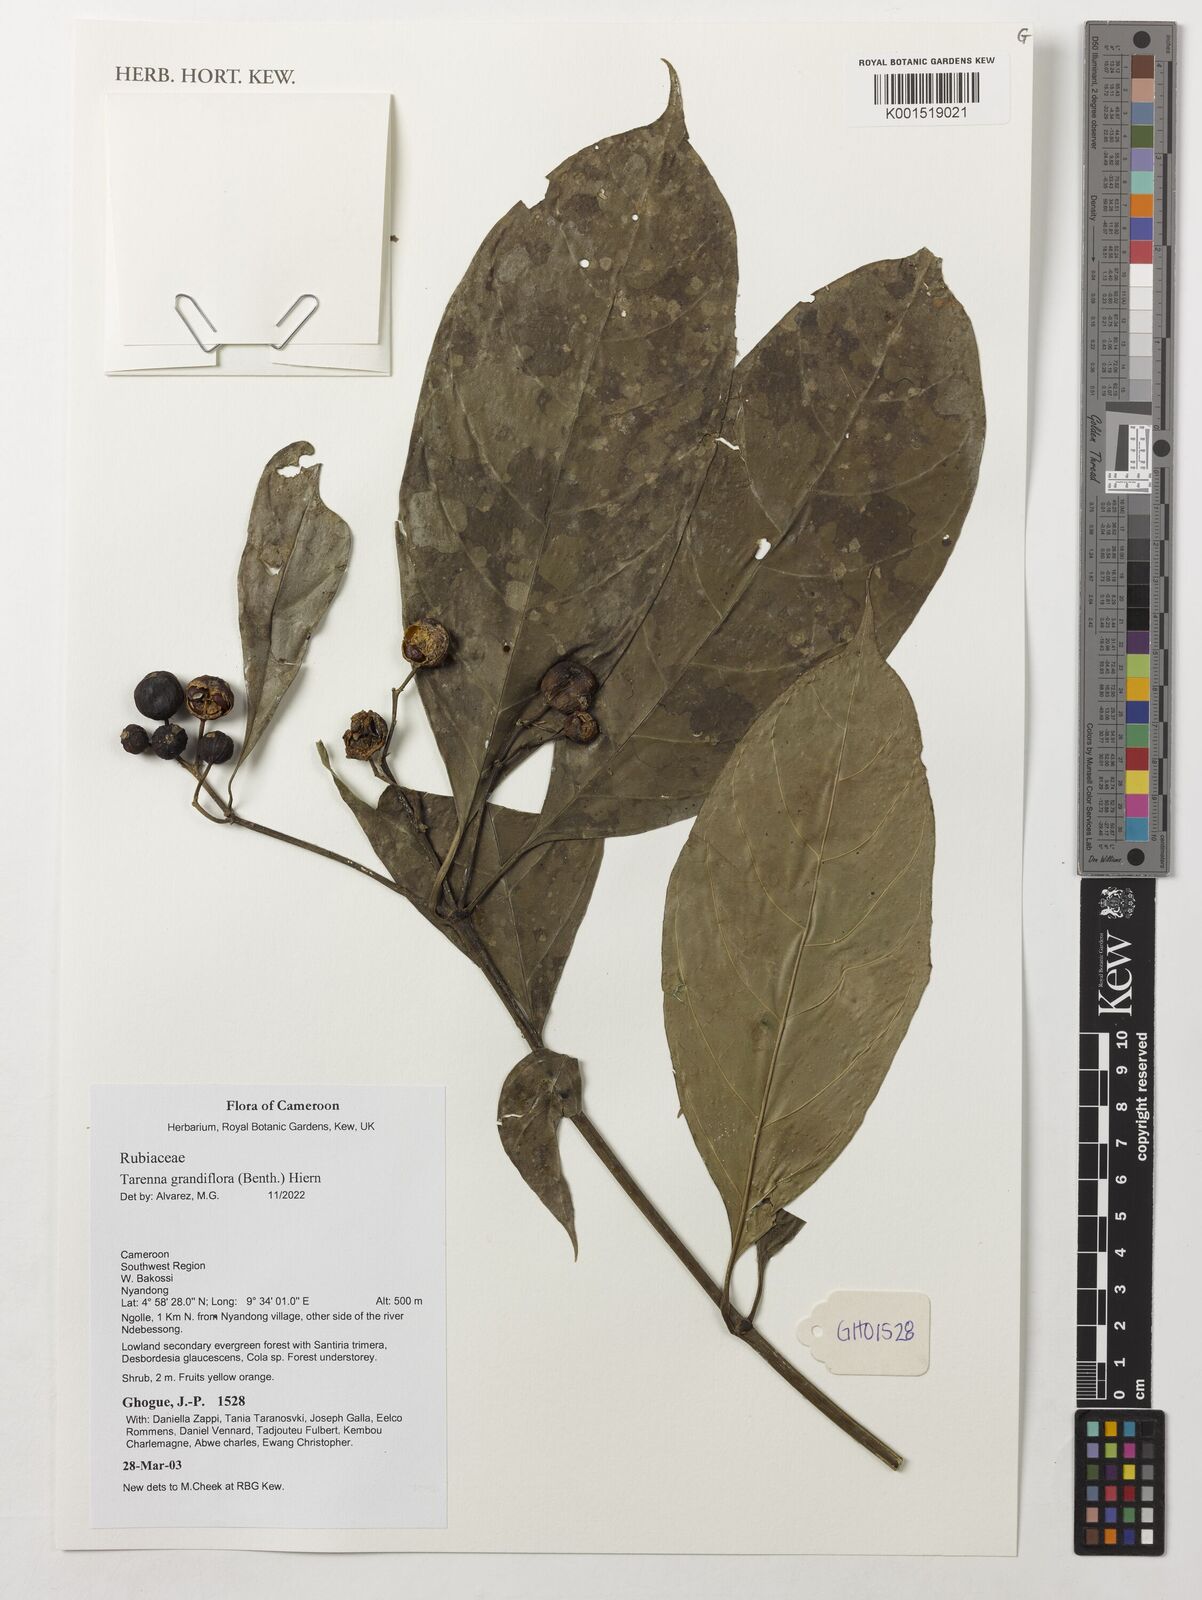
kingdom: Plantae
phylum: Tracheophyta
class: Magnoliopsida
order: Gentianales
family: Rubiaceae
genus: Tarenna
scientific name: Tarenna grandiflora
